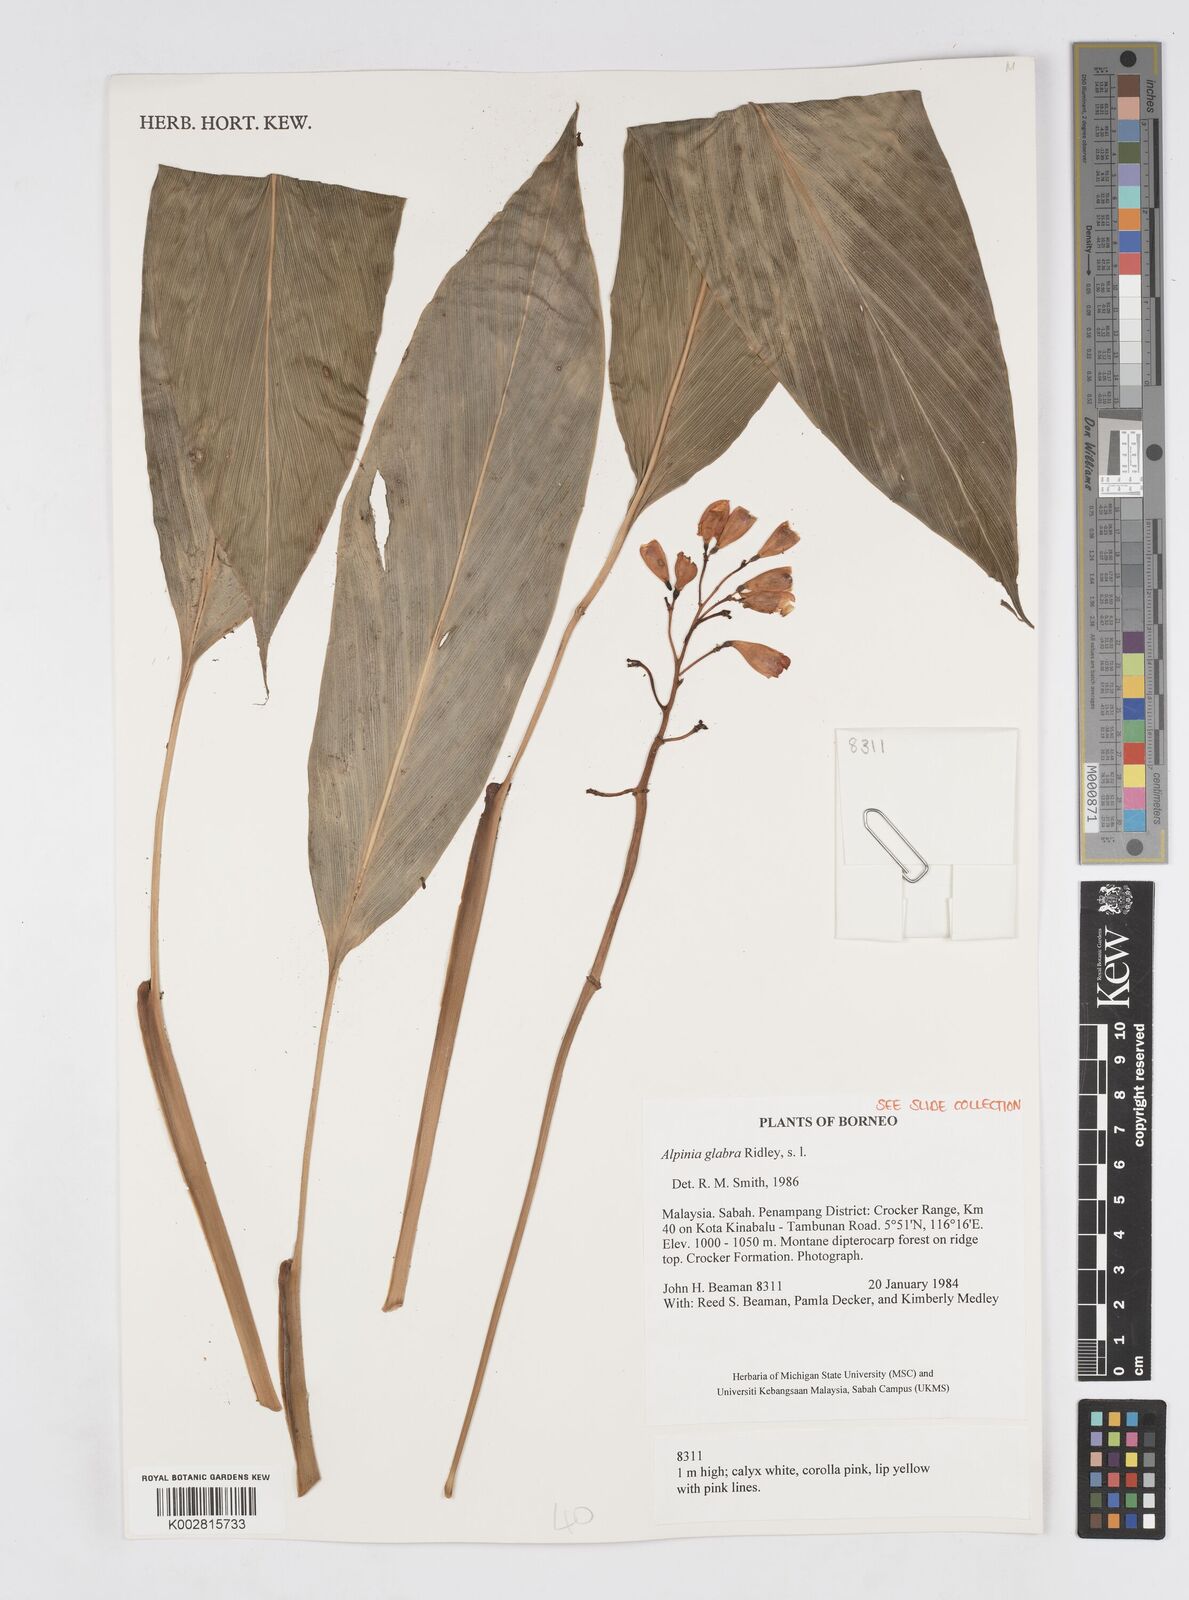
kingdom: Plantae
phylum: Tracheophyta
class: Liliopsida
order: Zingiberales
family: Zingiberaceae
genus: Alpinia
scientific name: Alpinia glabra
